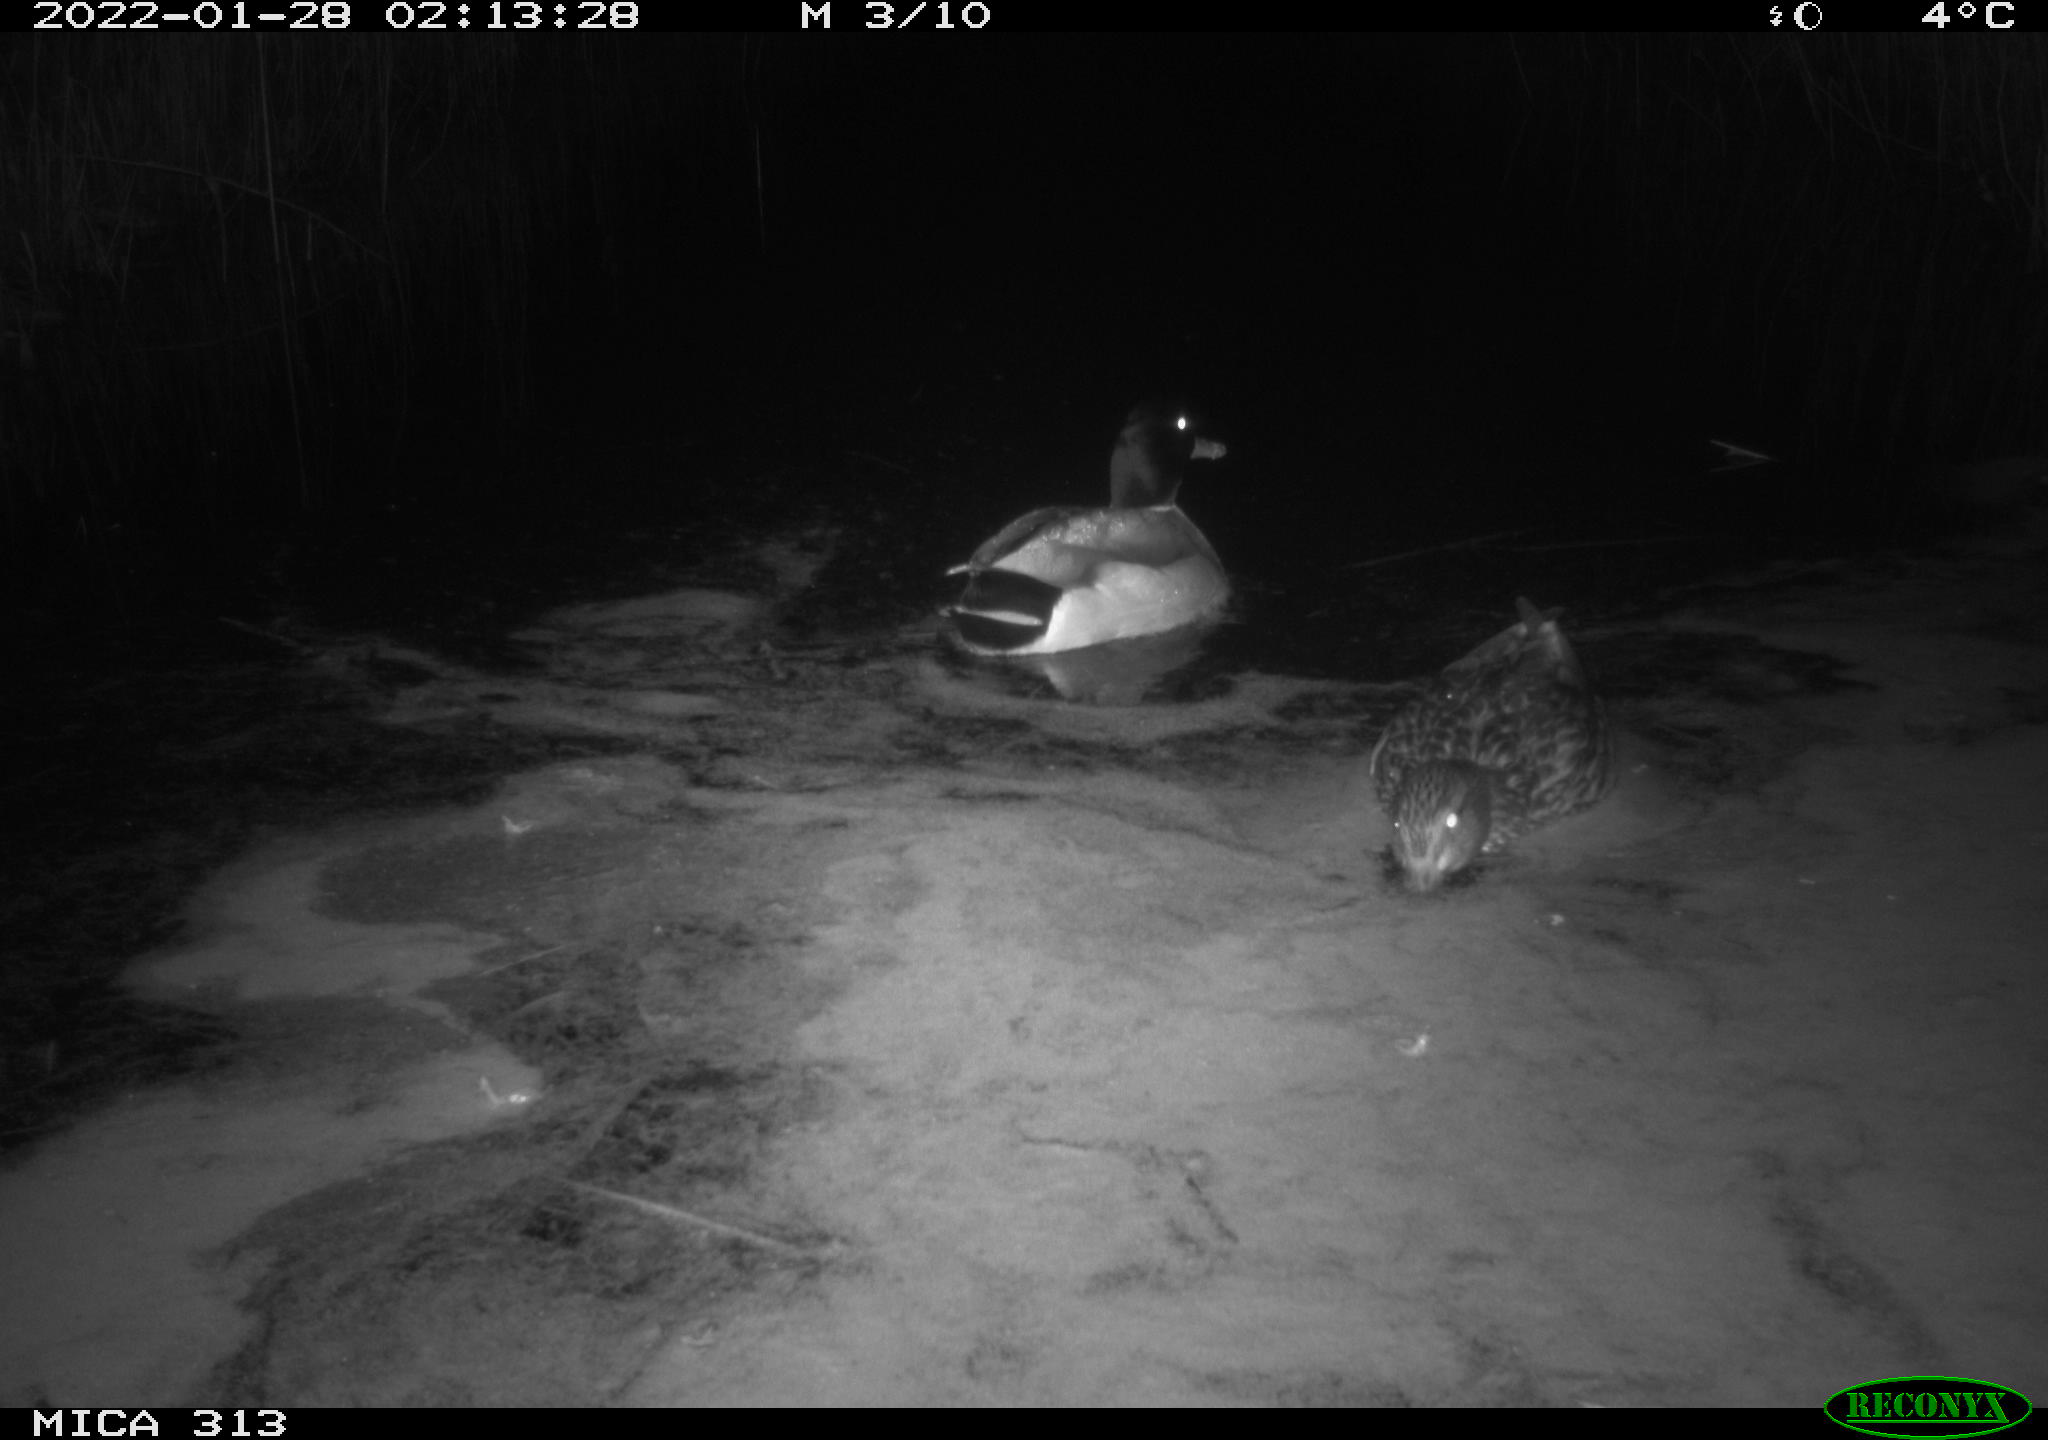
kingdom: Animalia
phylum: Chordata
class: Aves
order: Anseriformes
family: Anatidae
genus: Anas
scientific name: Anas
